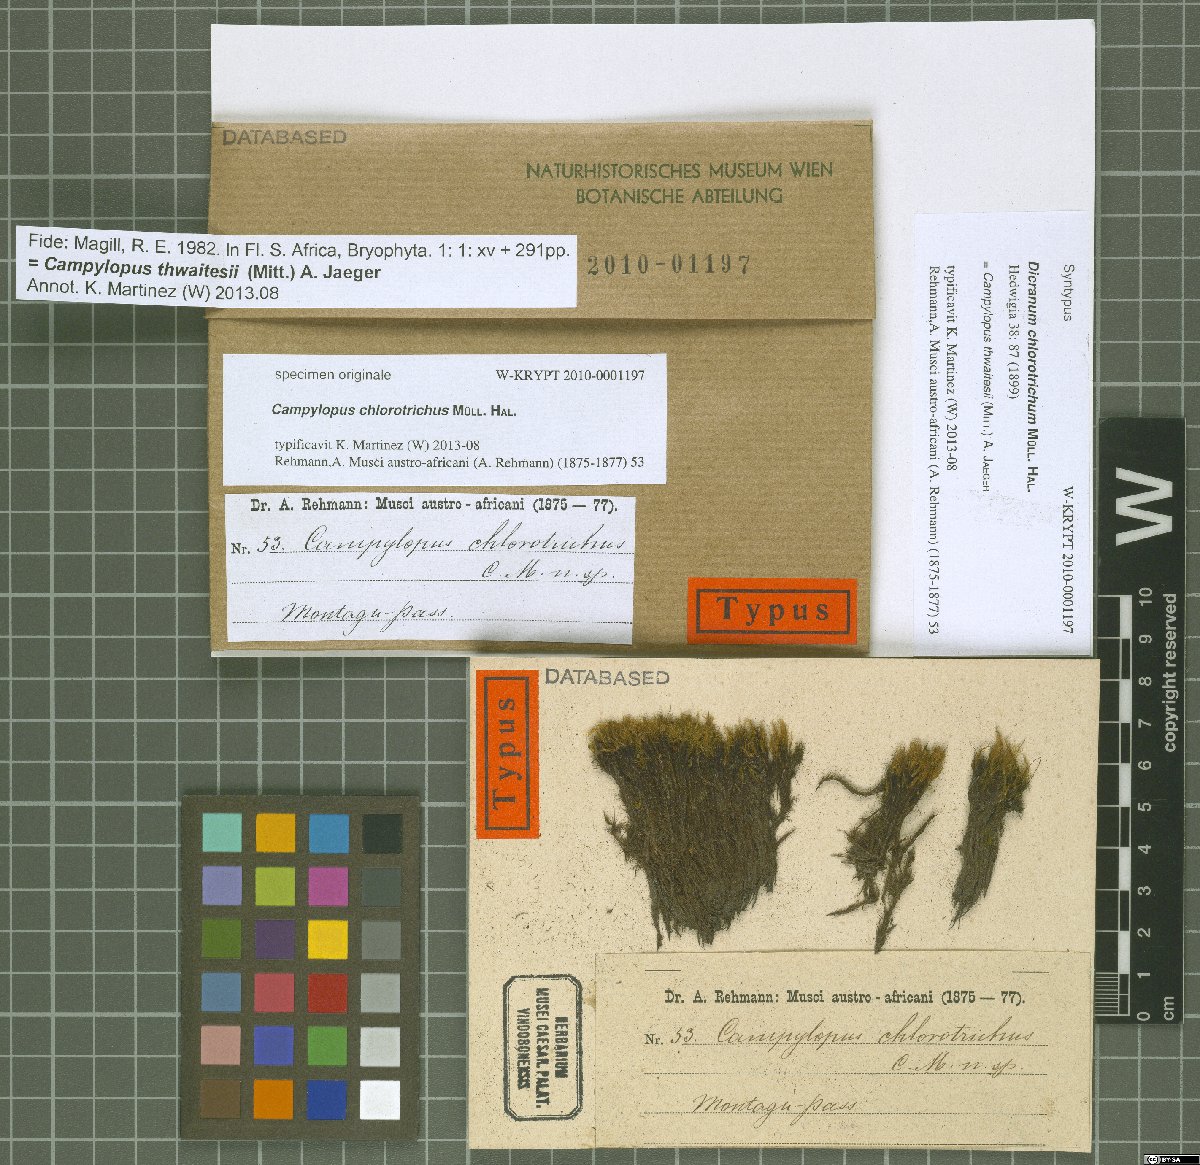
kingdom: Plantae
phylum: Bryophyta
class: Bryopsida
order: Dicranales
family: Leucobryaceae
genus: Campylopus
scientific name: Campylopus thwaitesii
